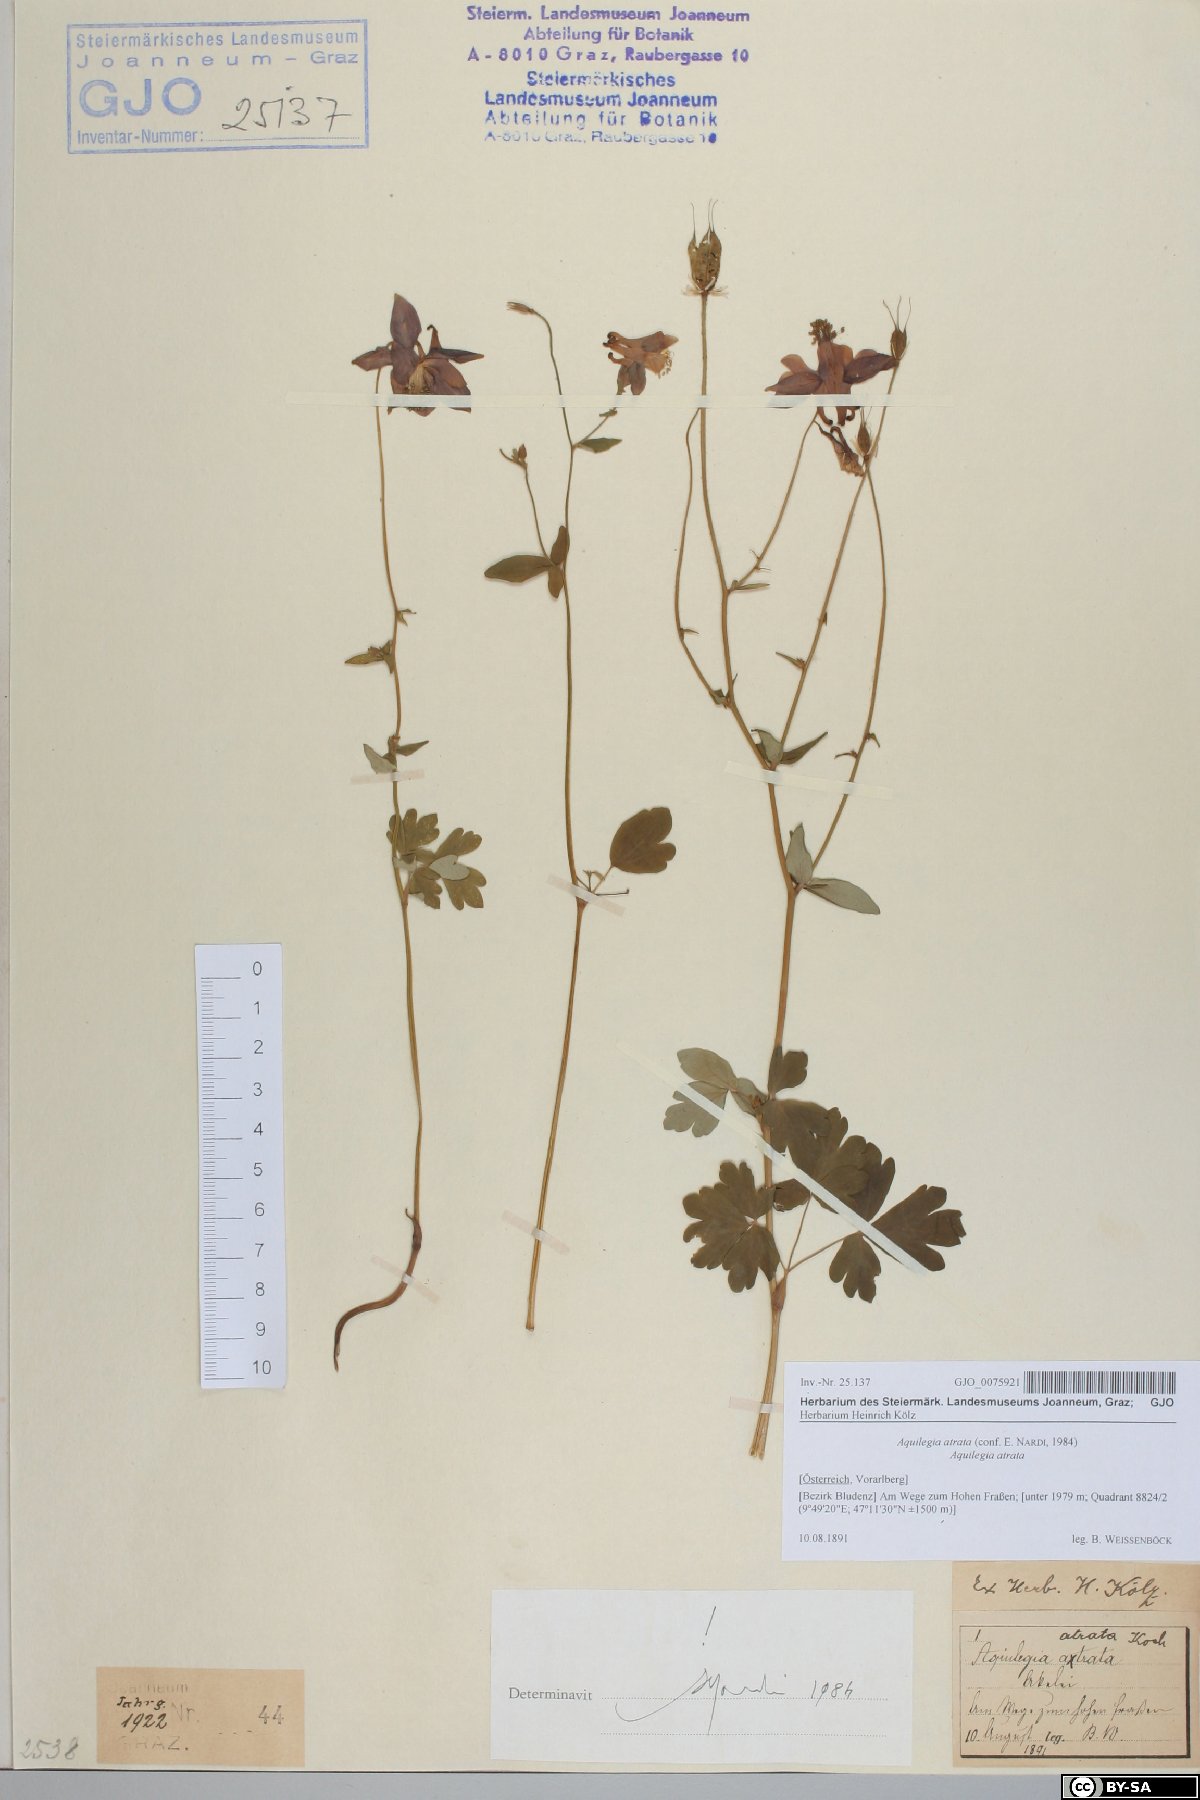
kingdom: Plantae
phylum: Tracheophyta
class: Magnoliopsida
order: Ranunculales
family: Ranunculaceae
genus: Aquilegia
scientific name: Aquilegia atrata
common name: Dark columbine
